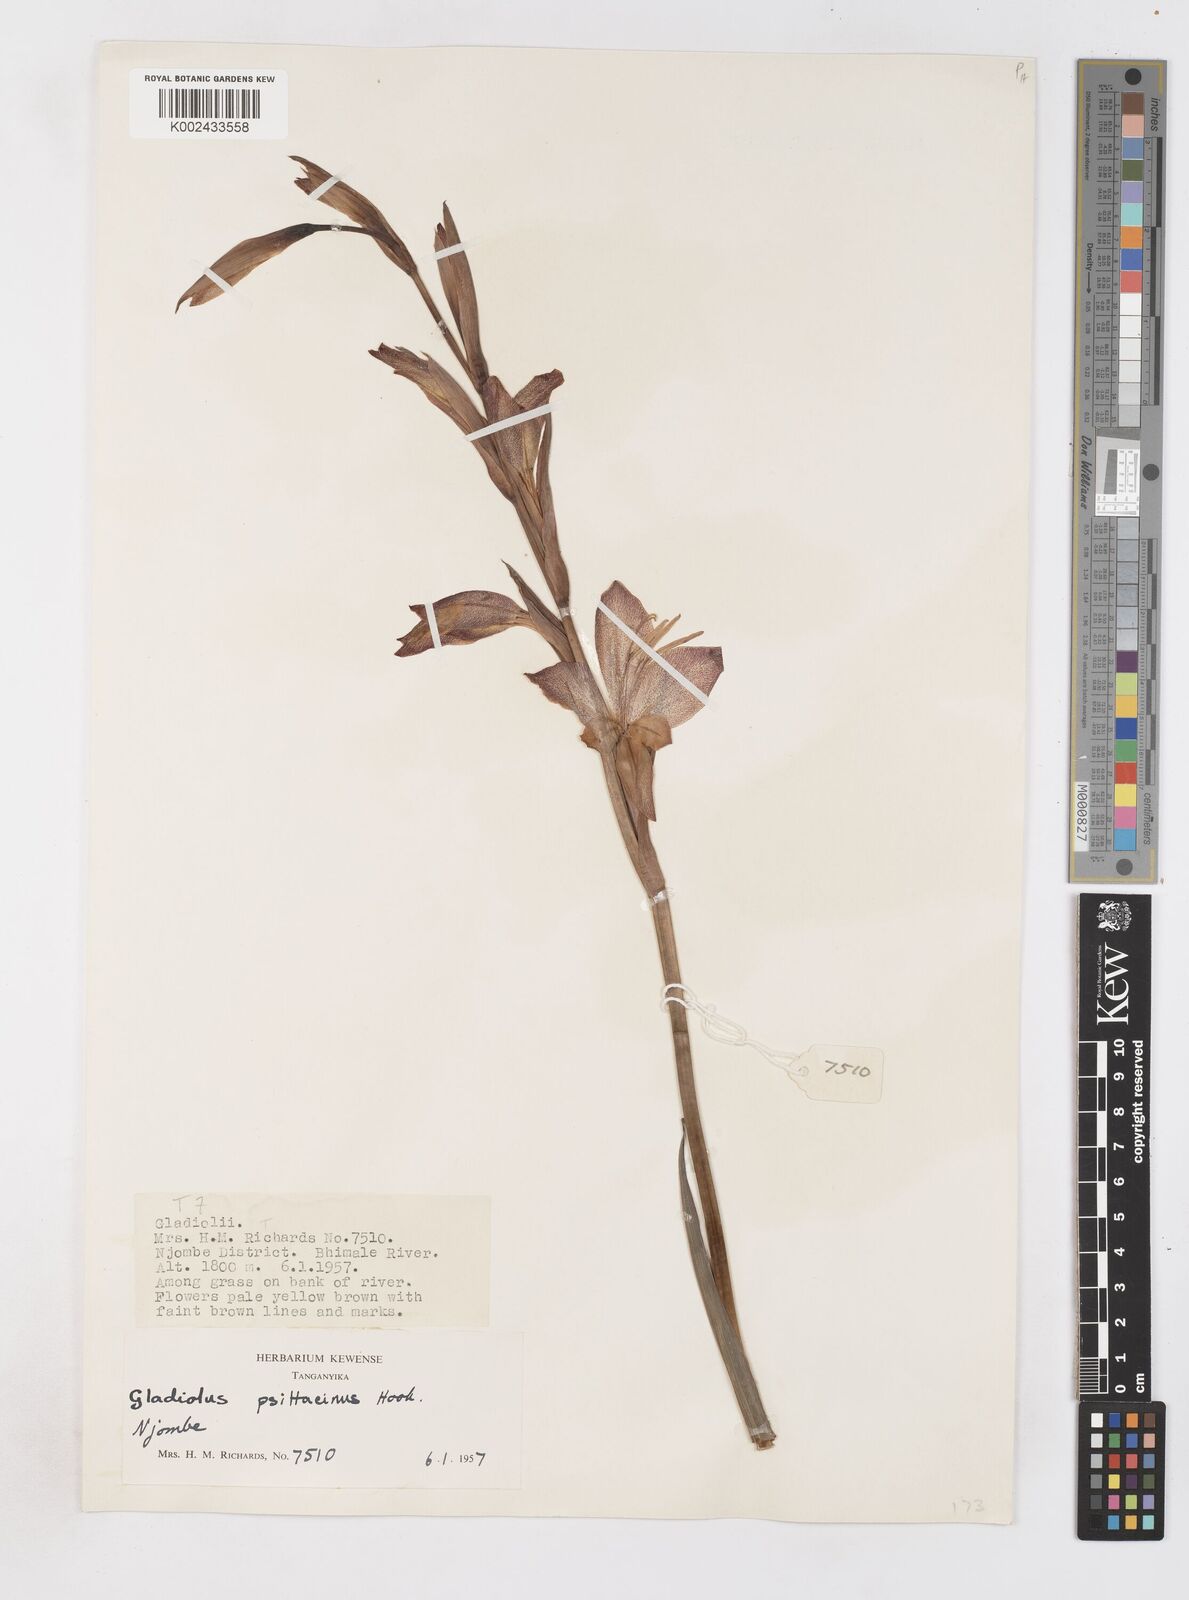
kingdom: Plantae
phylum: Tracheophyta
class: Liliopsida
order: Asparagales
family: Iridaceae
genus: Gladiolus
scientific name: Gladiolus dalenii
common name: Cornflag
